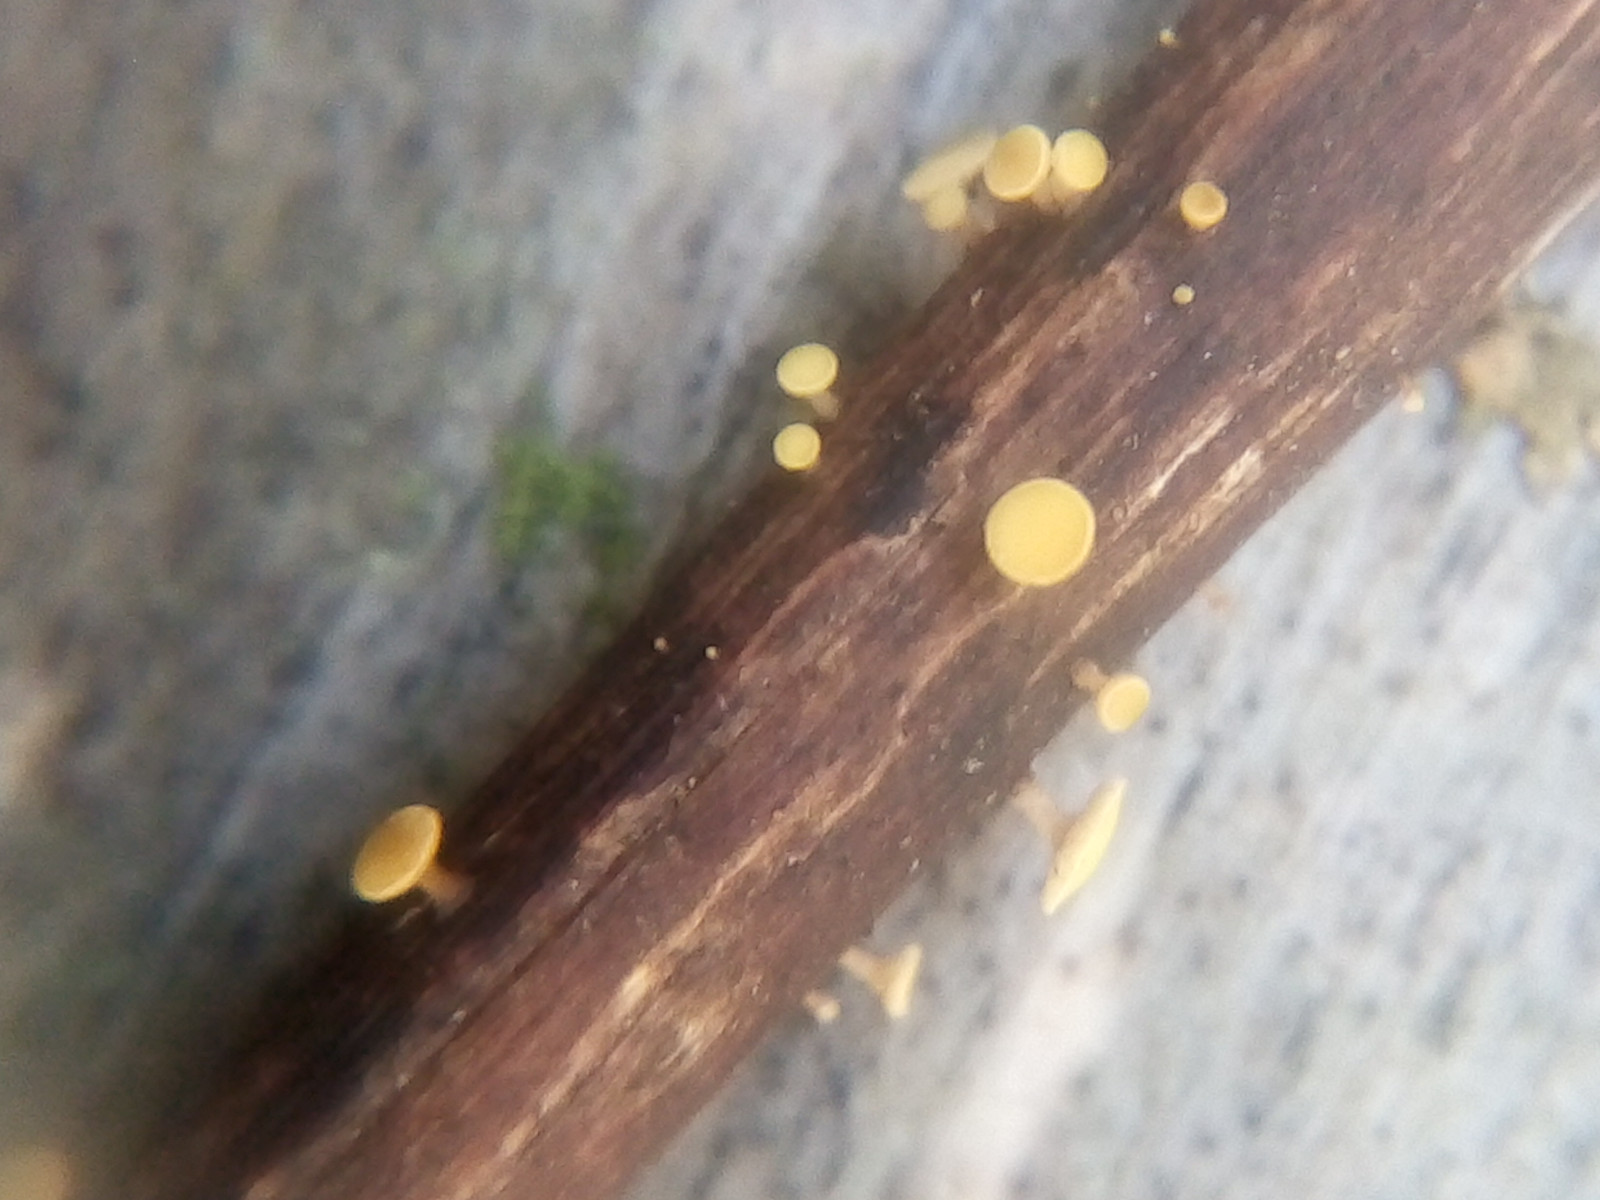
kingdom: Fungi
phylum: Ascomycota
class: Leotiomycetes
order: Helotiales
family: Helotiaceae
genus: Hymenoscyphus
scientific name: Hymenoscyphus scutula
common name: almindelig stilkskive
